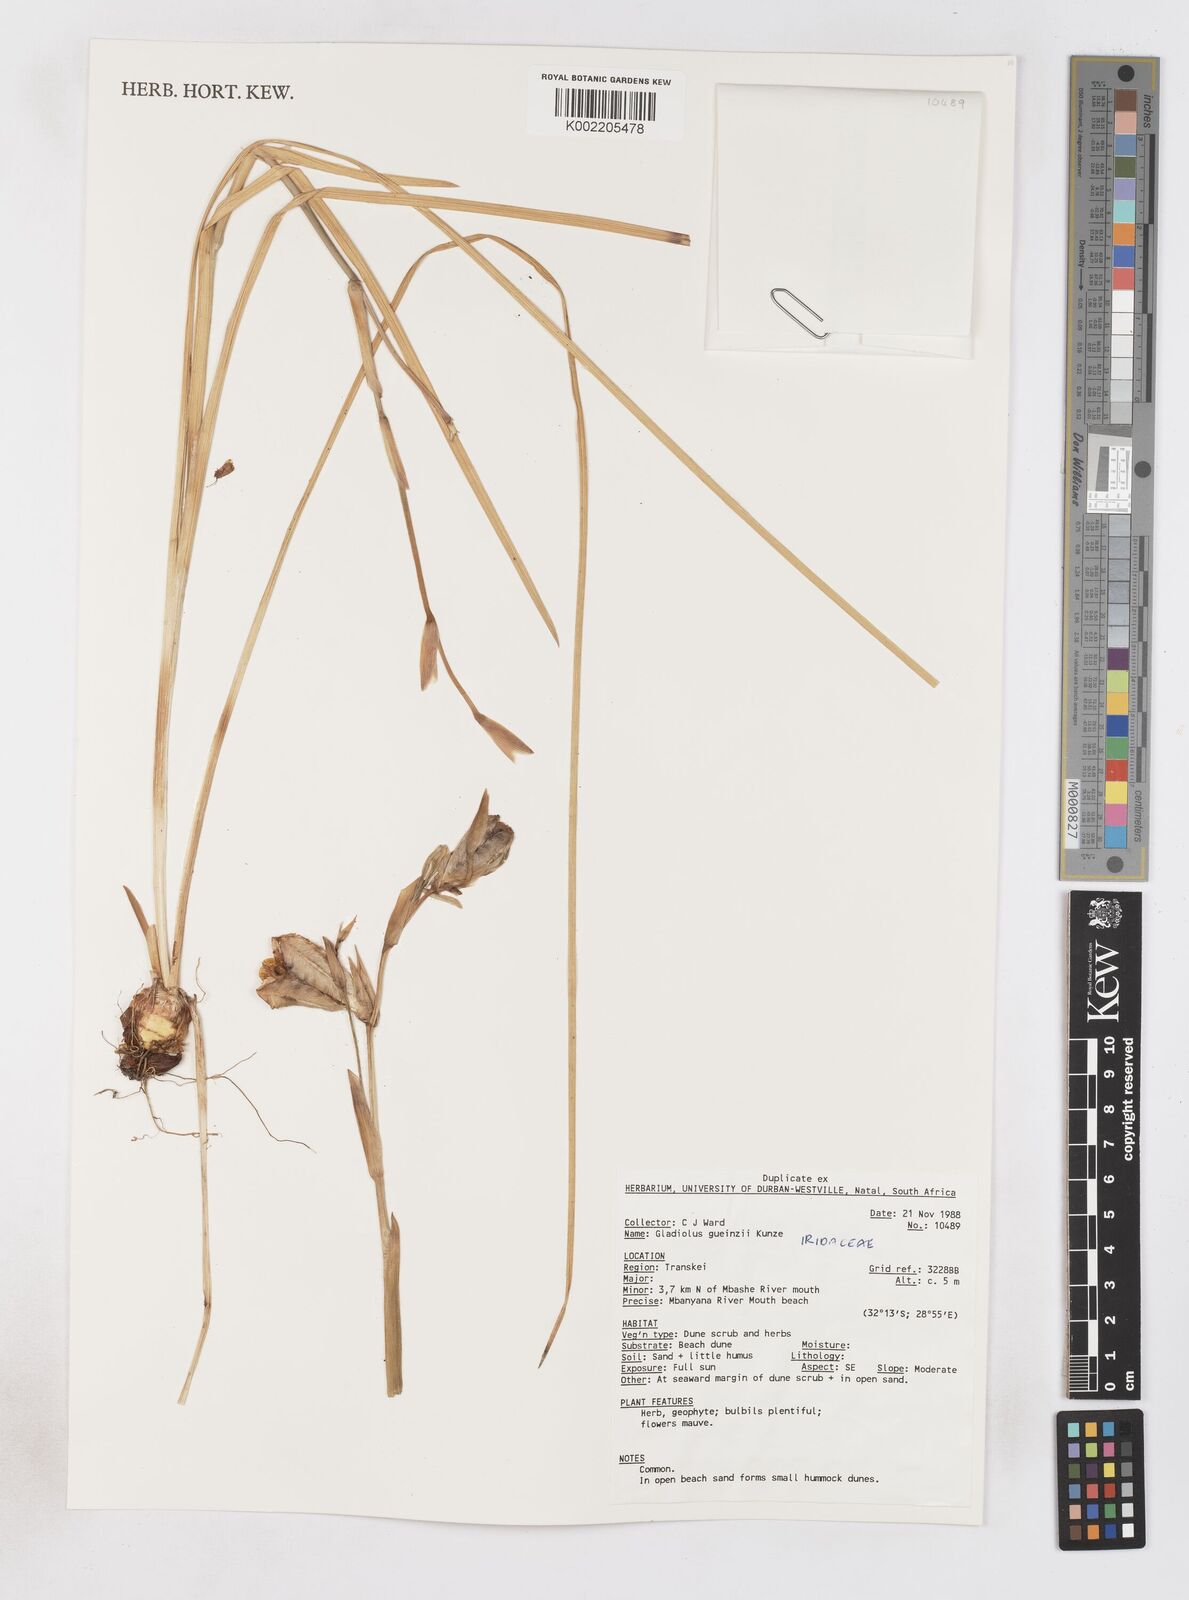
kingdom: Plantae
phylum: Tracheophyta
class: Liliopsida
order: Asparagales
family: Iridaceae
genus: Gladiolus
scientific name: Gladiolus gueinzii
